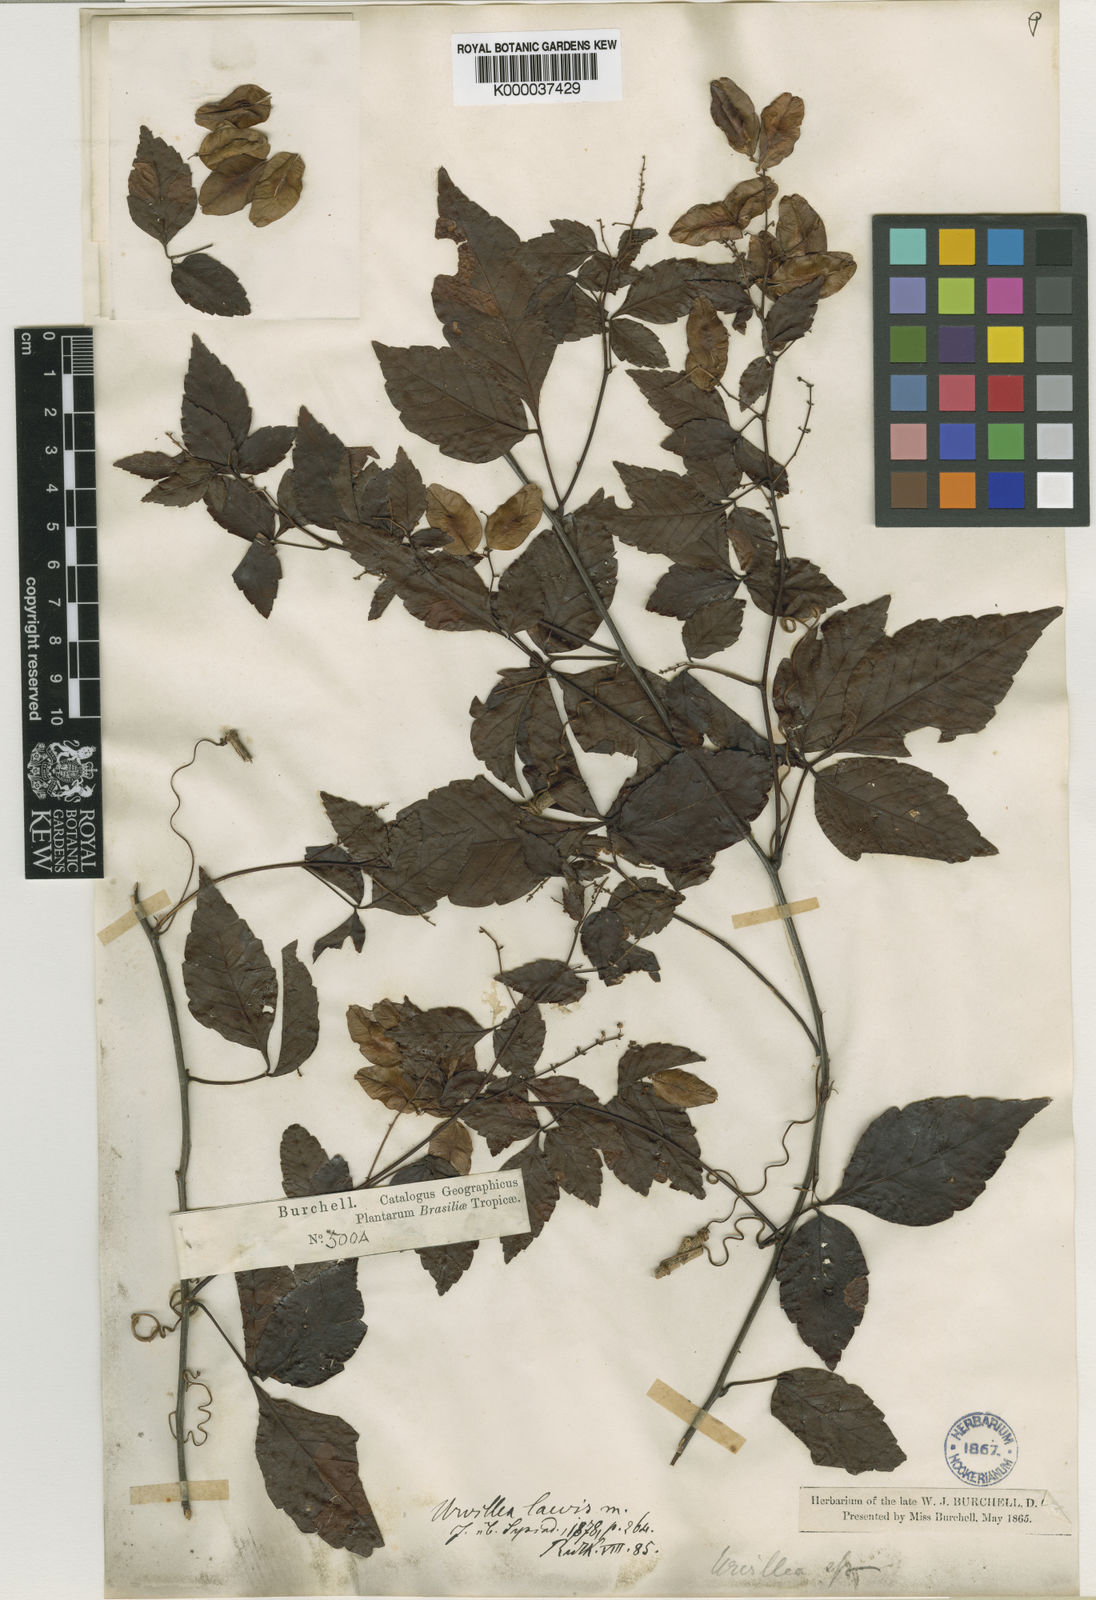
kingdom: Plantae
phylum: Tracheophyta
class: Magnoliopsida
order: Sapindales
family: Sapindaceae
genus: Urvillea
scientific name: Urvillea laevis
